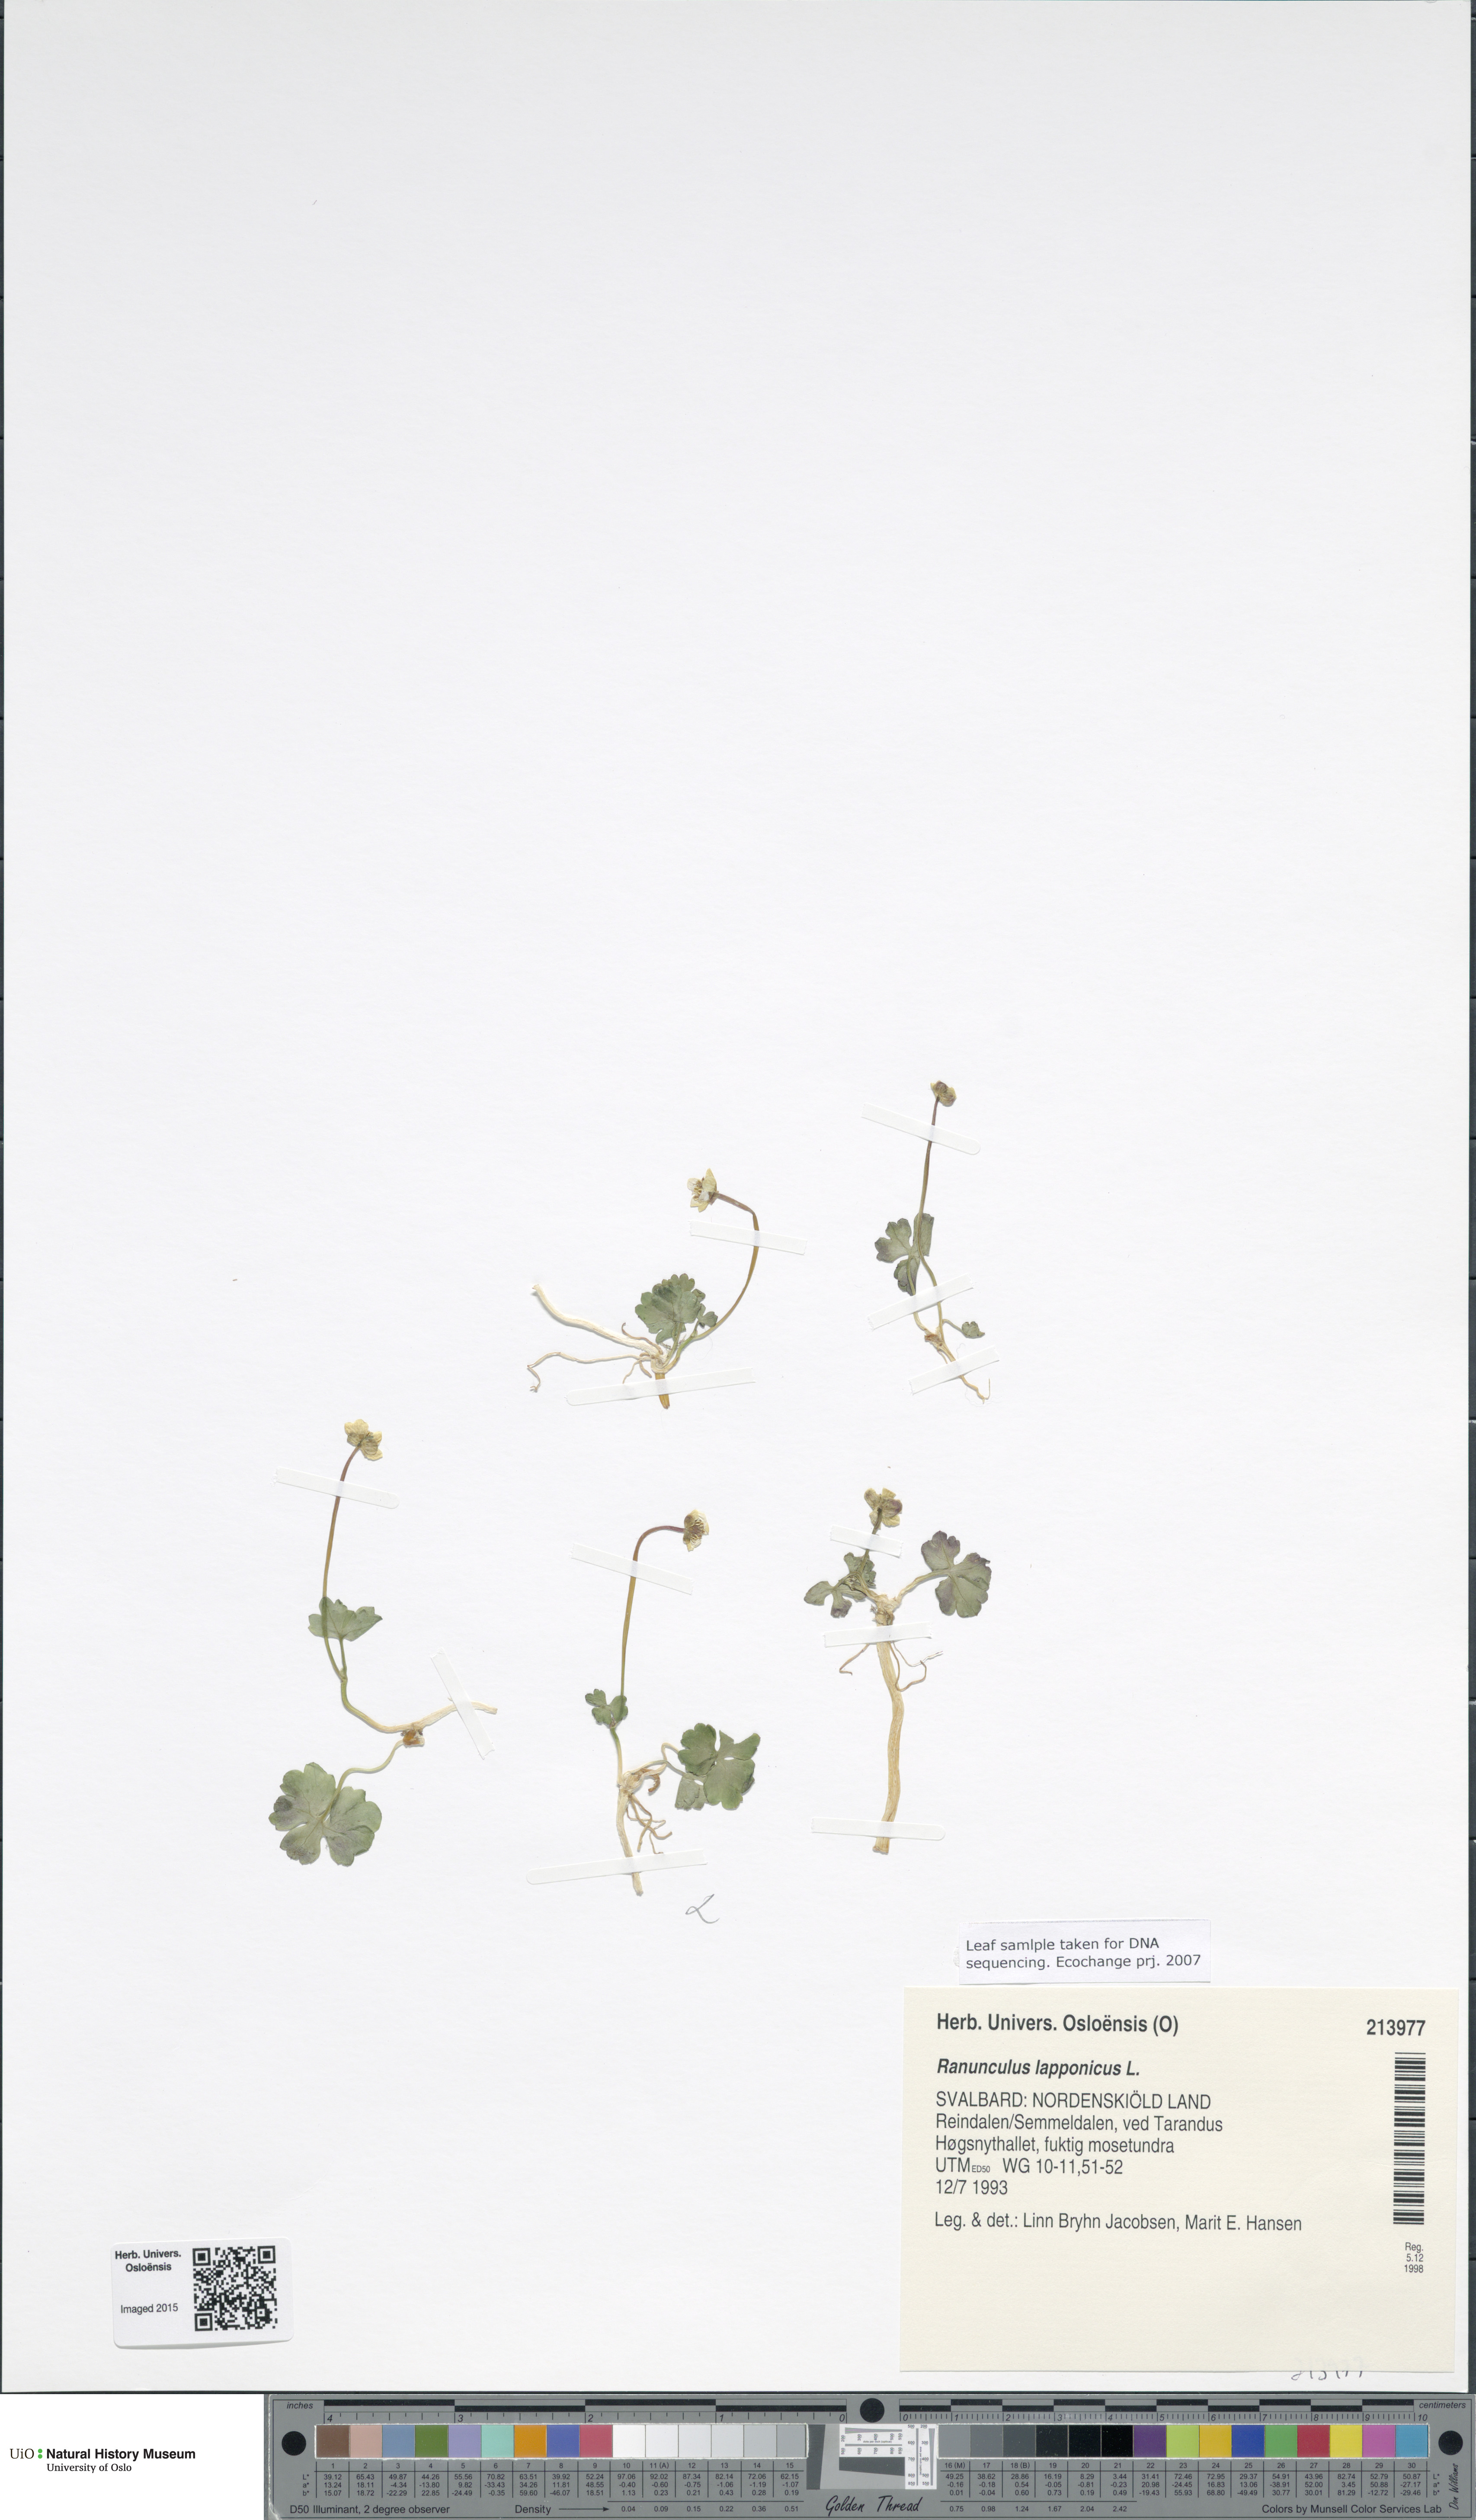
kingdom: Plantae
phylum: Tracheophyta
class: Magnoliopsida
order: Ranunculales
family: Ranunculaceae
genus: Coptidium
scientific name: Coptidium lapponicum
